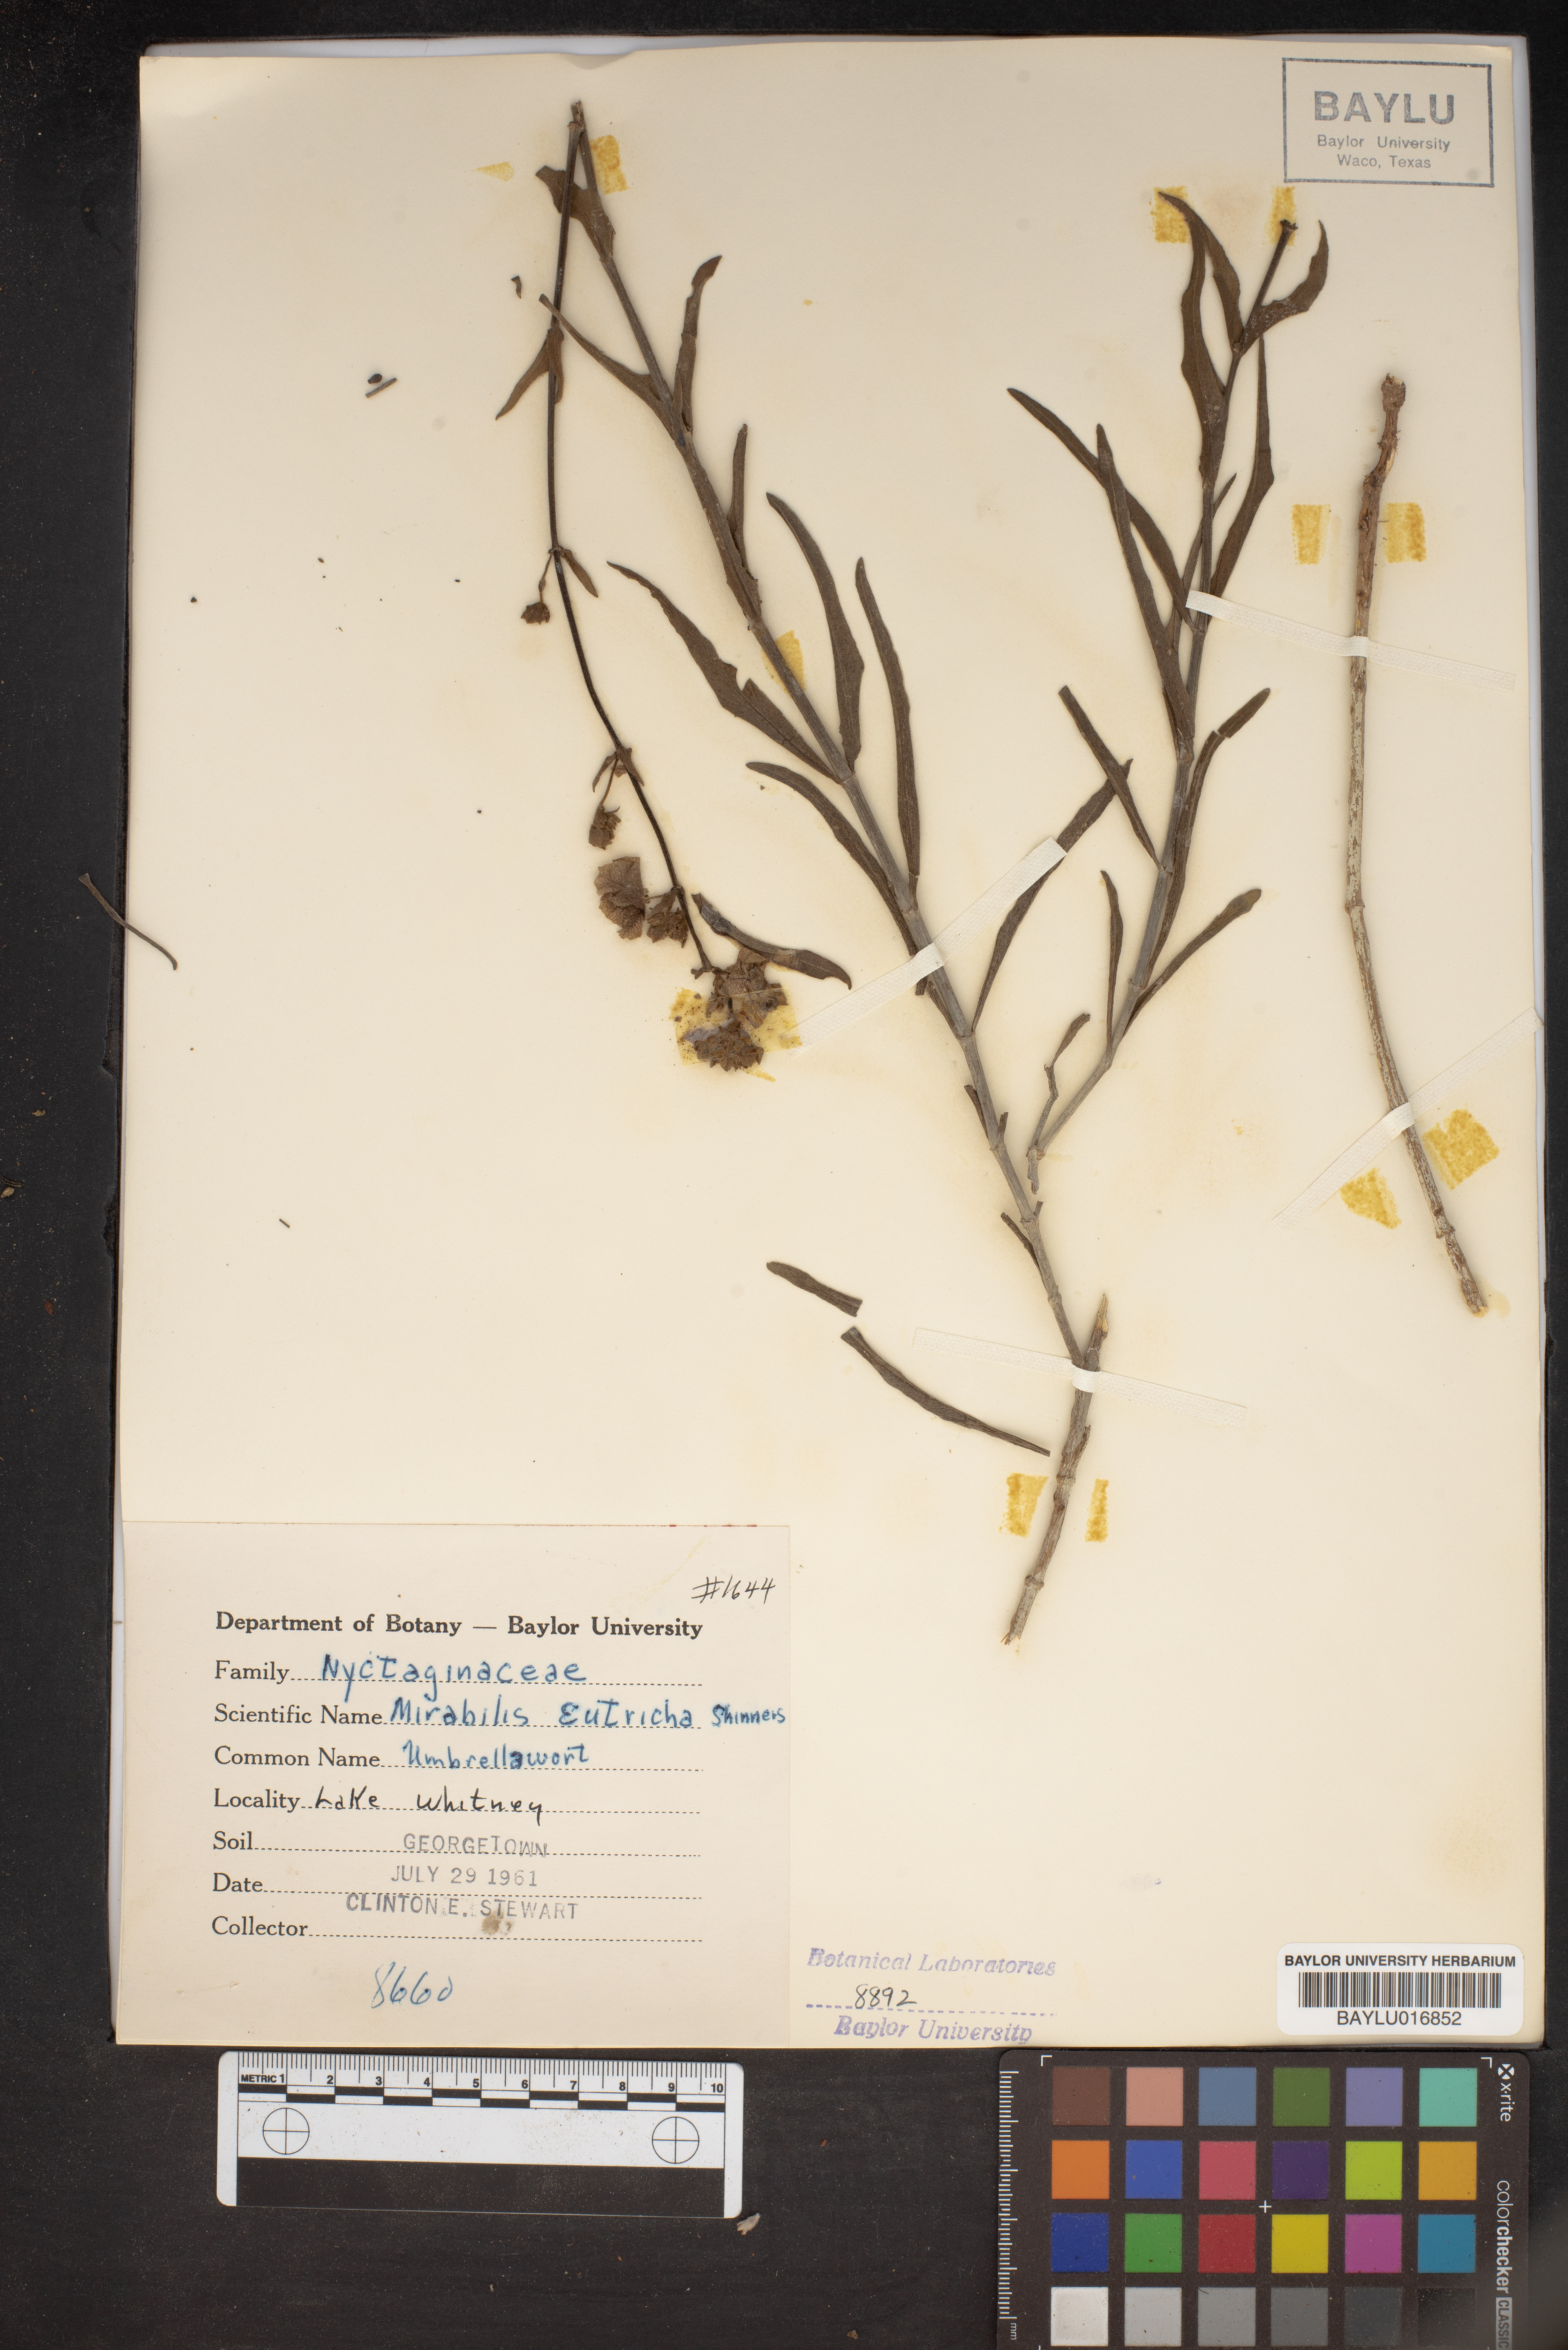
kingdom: Plantae
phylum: Tracheophyta
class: Magnoliopsida
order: Caryophyllales
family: Nyctaginaceae
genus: Mirabilis
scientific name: Mirabilis albida
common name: Hairy four-o'clock
